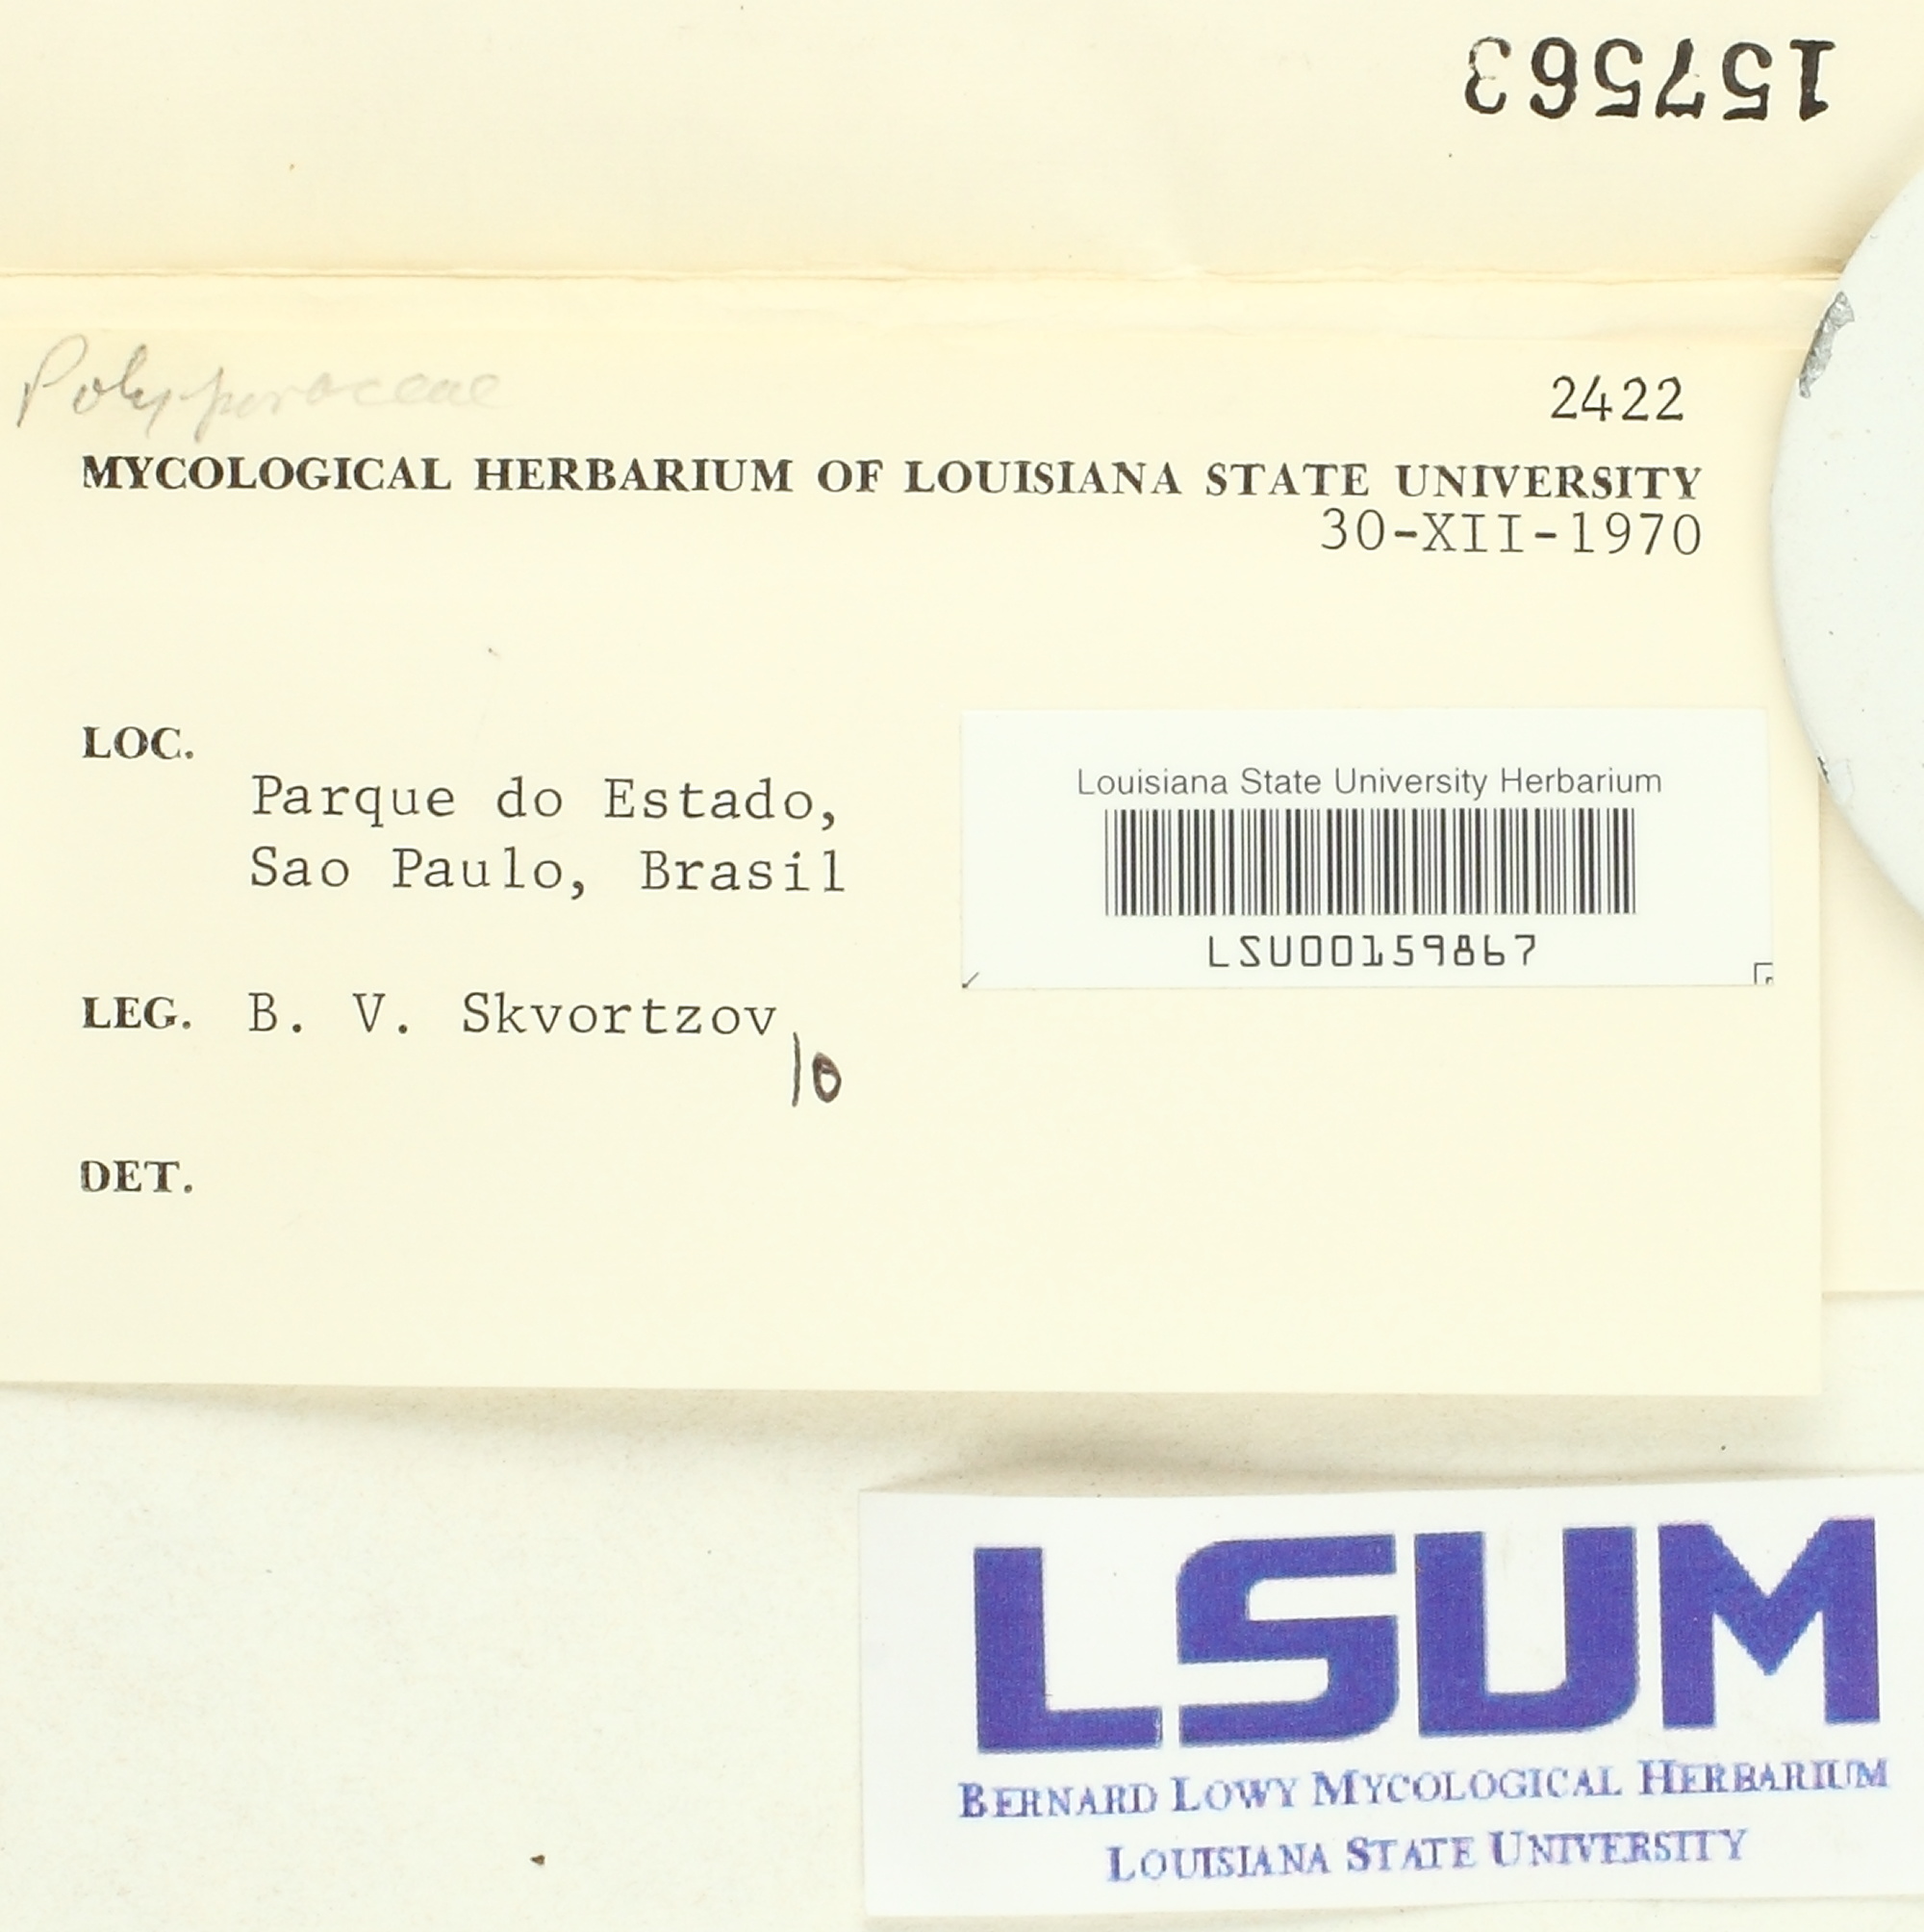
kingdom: Fungi
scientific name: Fungi
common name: Fungi
